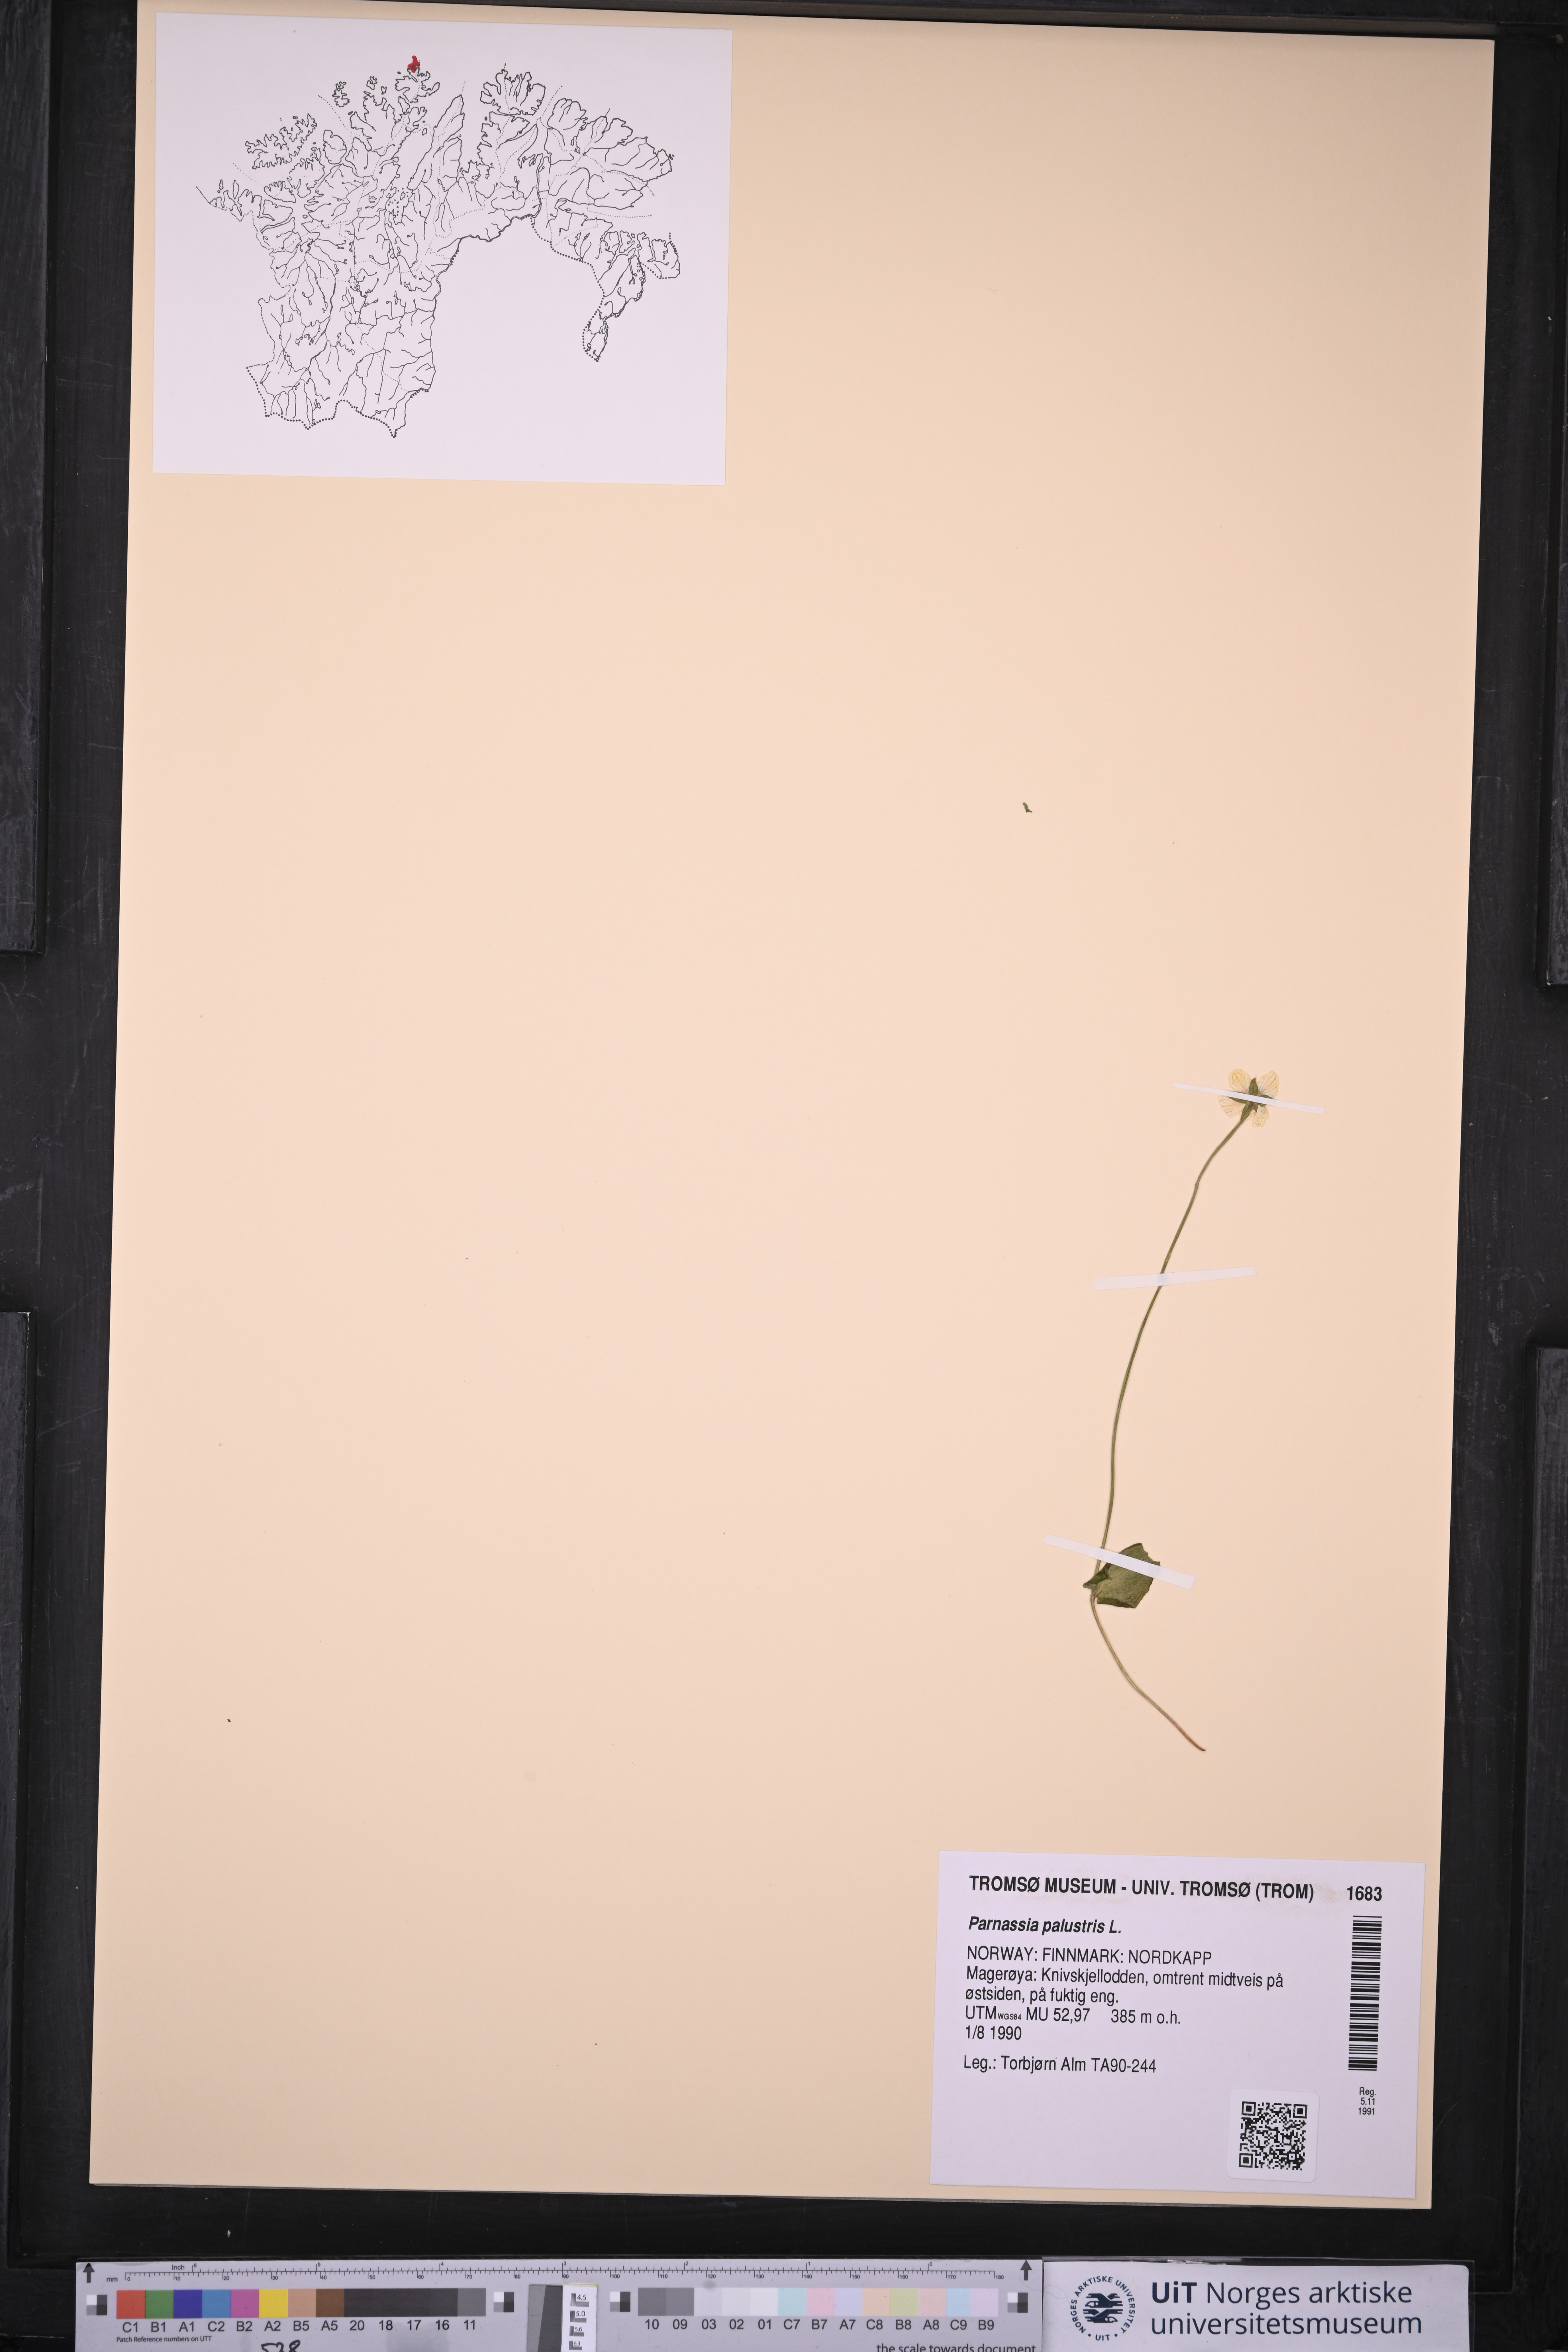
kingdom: Plantae
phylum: Tracheophyta
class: Magnoliopsida
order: Celastrales
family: Parnassiaceae
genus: Parnassia
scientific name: Parnassia palustris
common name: Grass-of-parnassus
